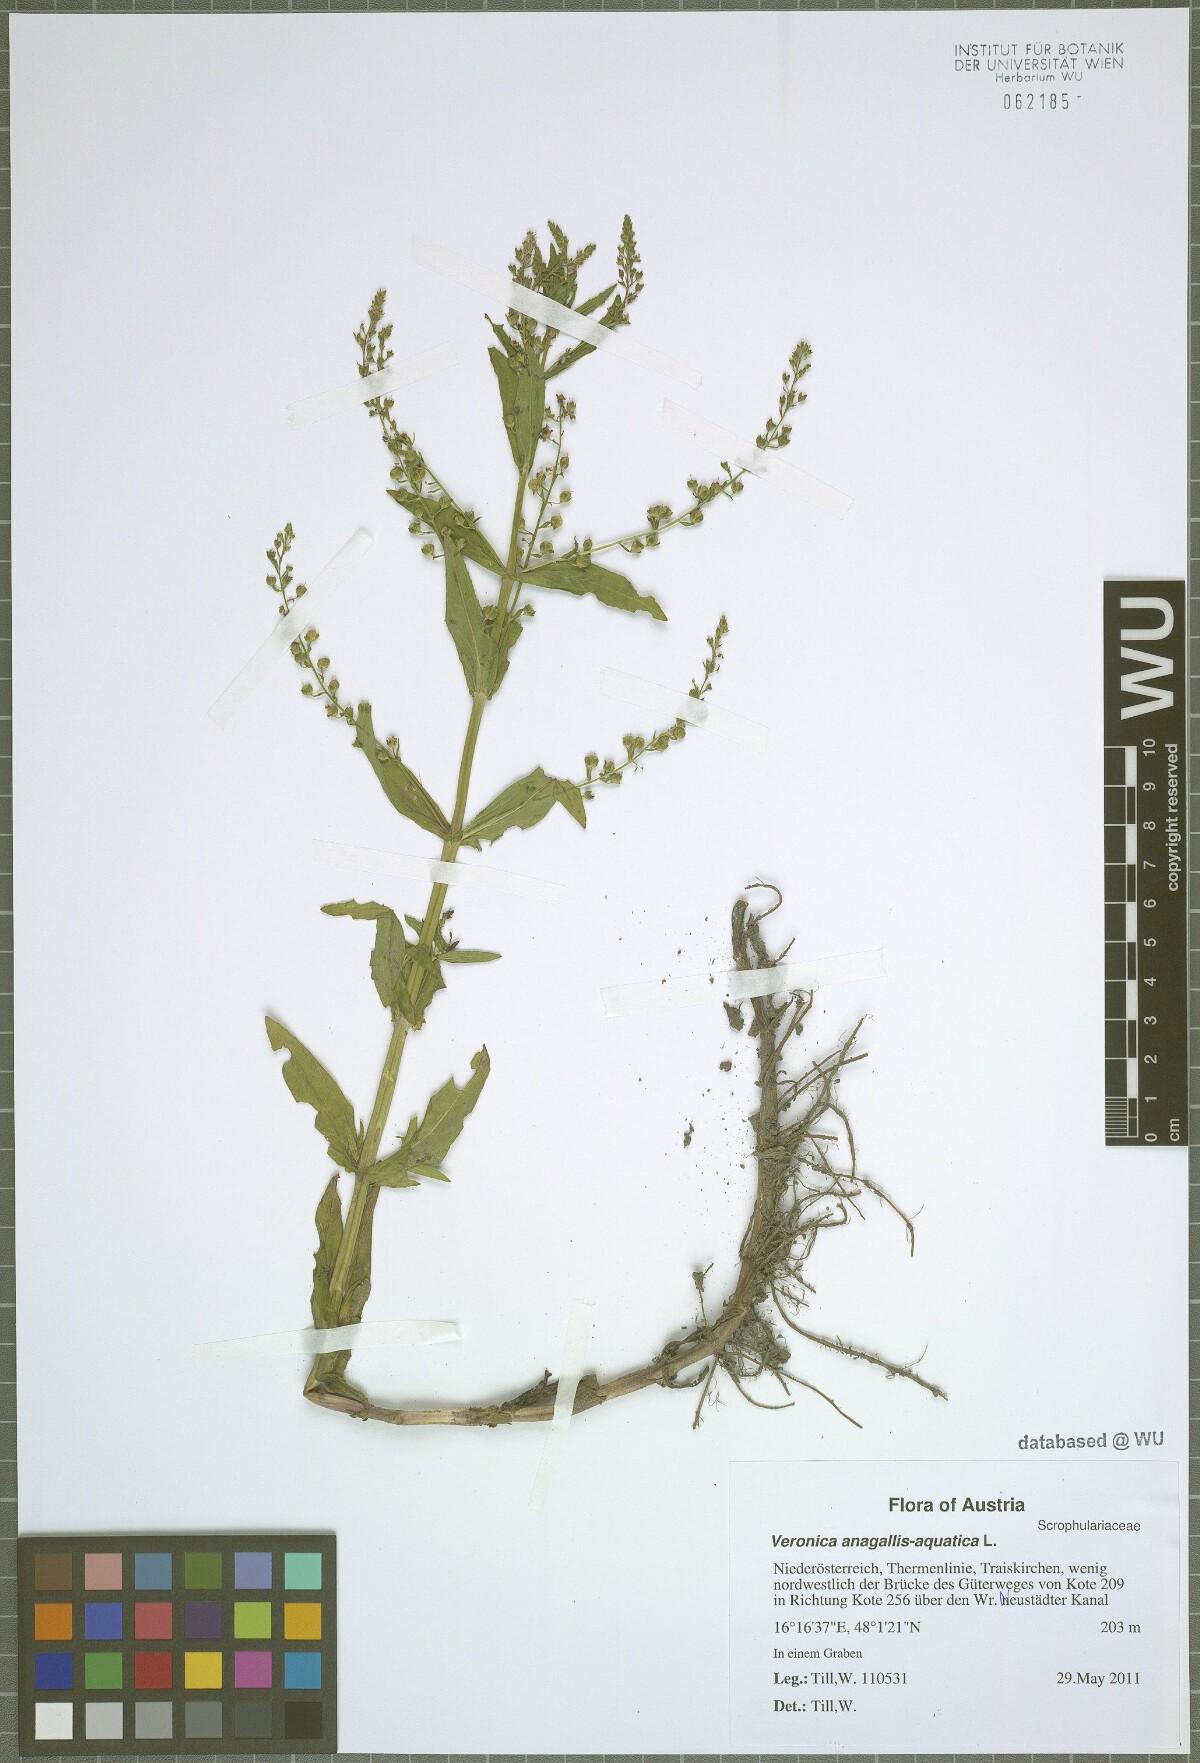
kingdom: Plantae
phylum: Tracheophyta
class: Magnoliopsida
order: Lamiales
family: Plantaginaceae
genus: Veronica
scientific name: Veronica anagallis-aquatica
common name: Water speedwell
